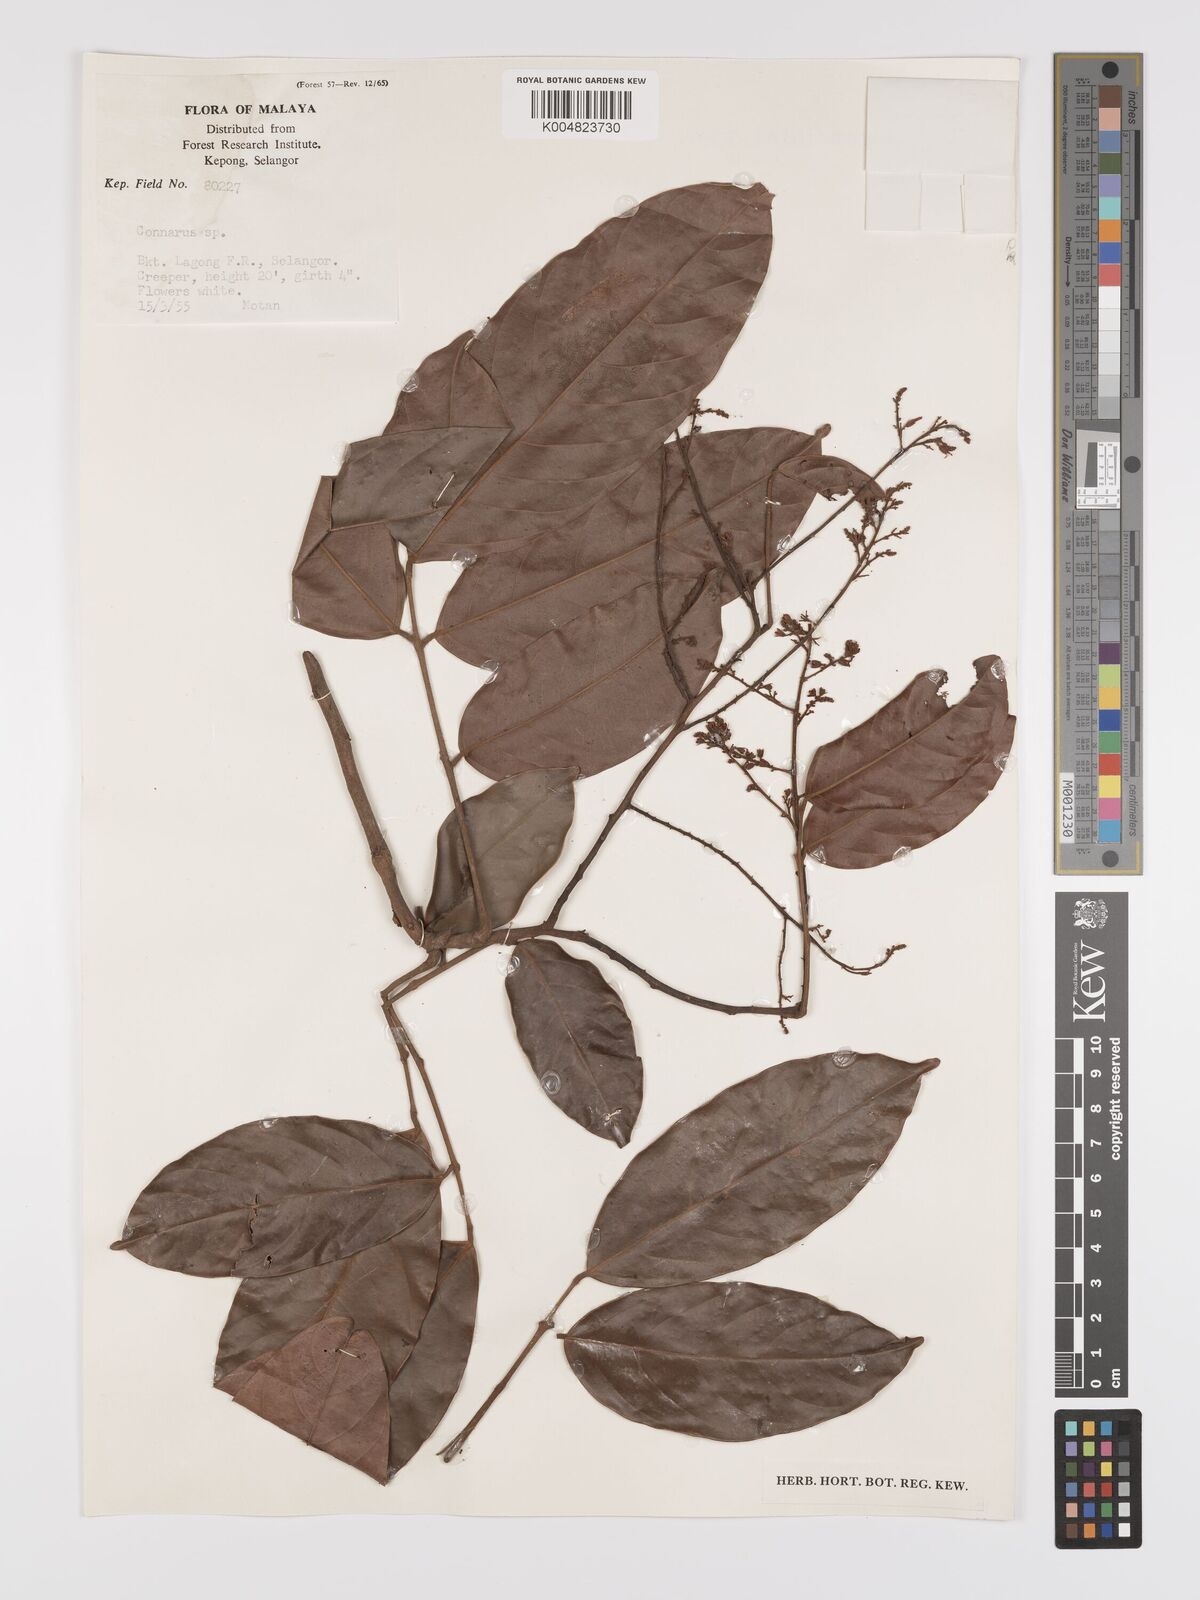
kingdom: Plantae
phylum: Tracheophyta
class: Magnoliopsida
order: Oxalidales
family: Connaraceae
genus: Connarus
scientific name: Connarus
